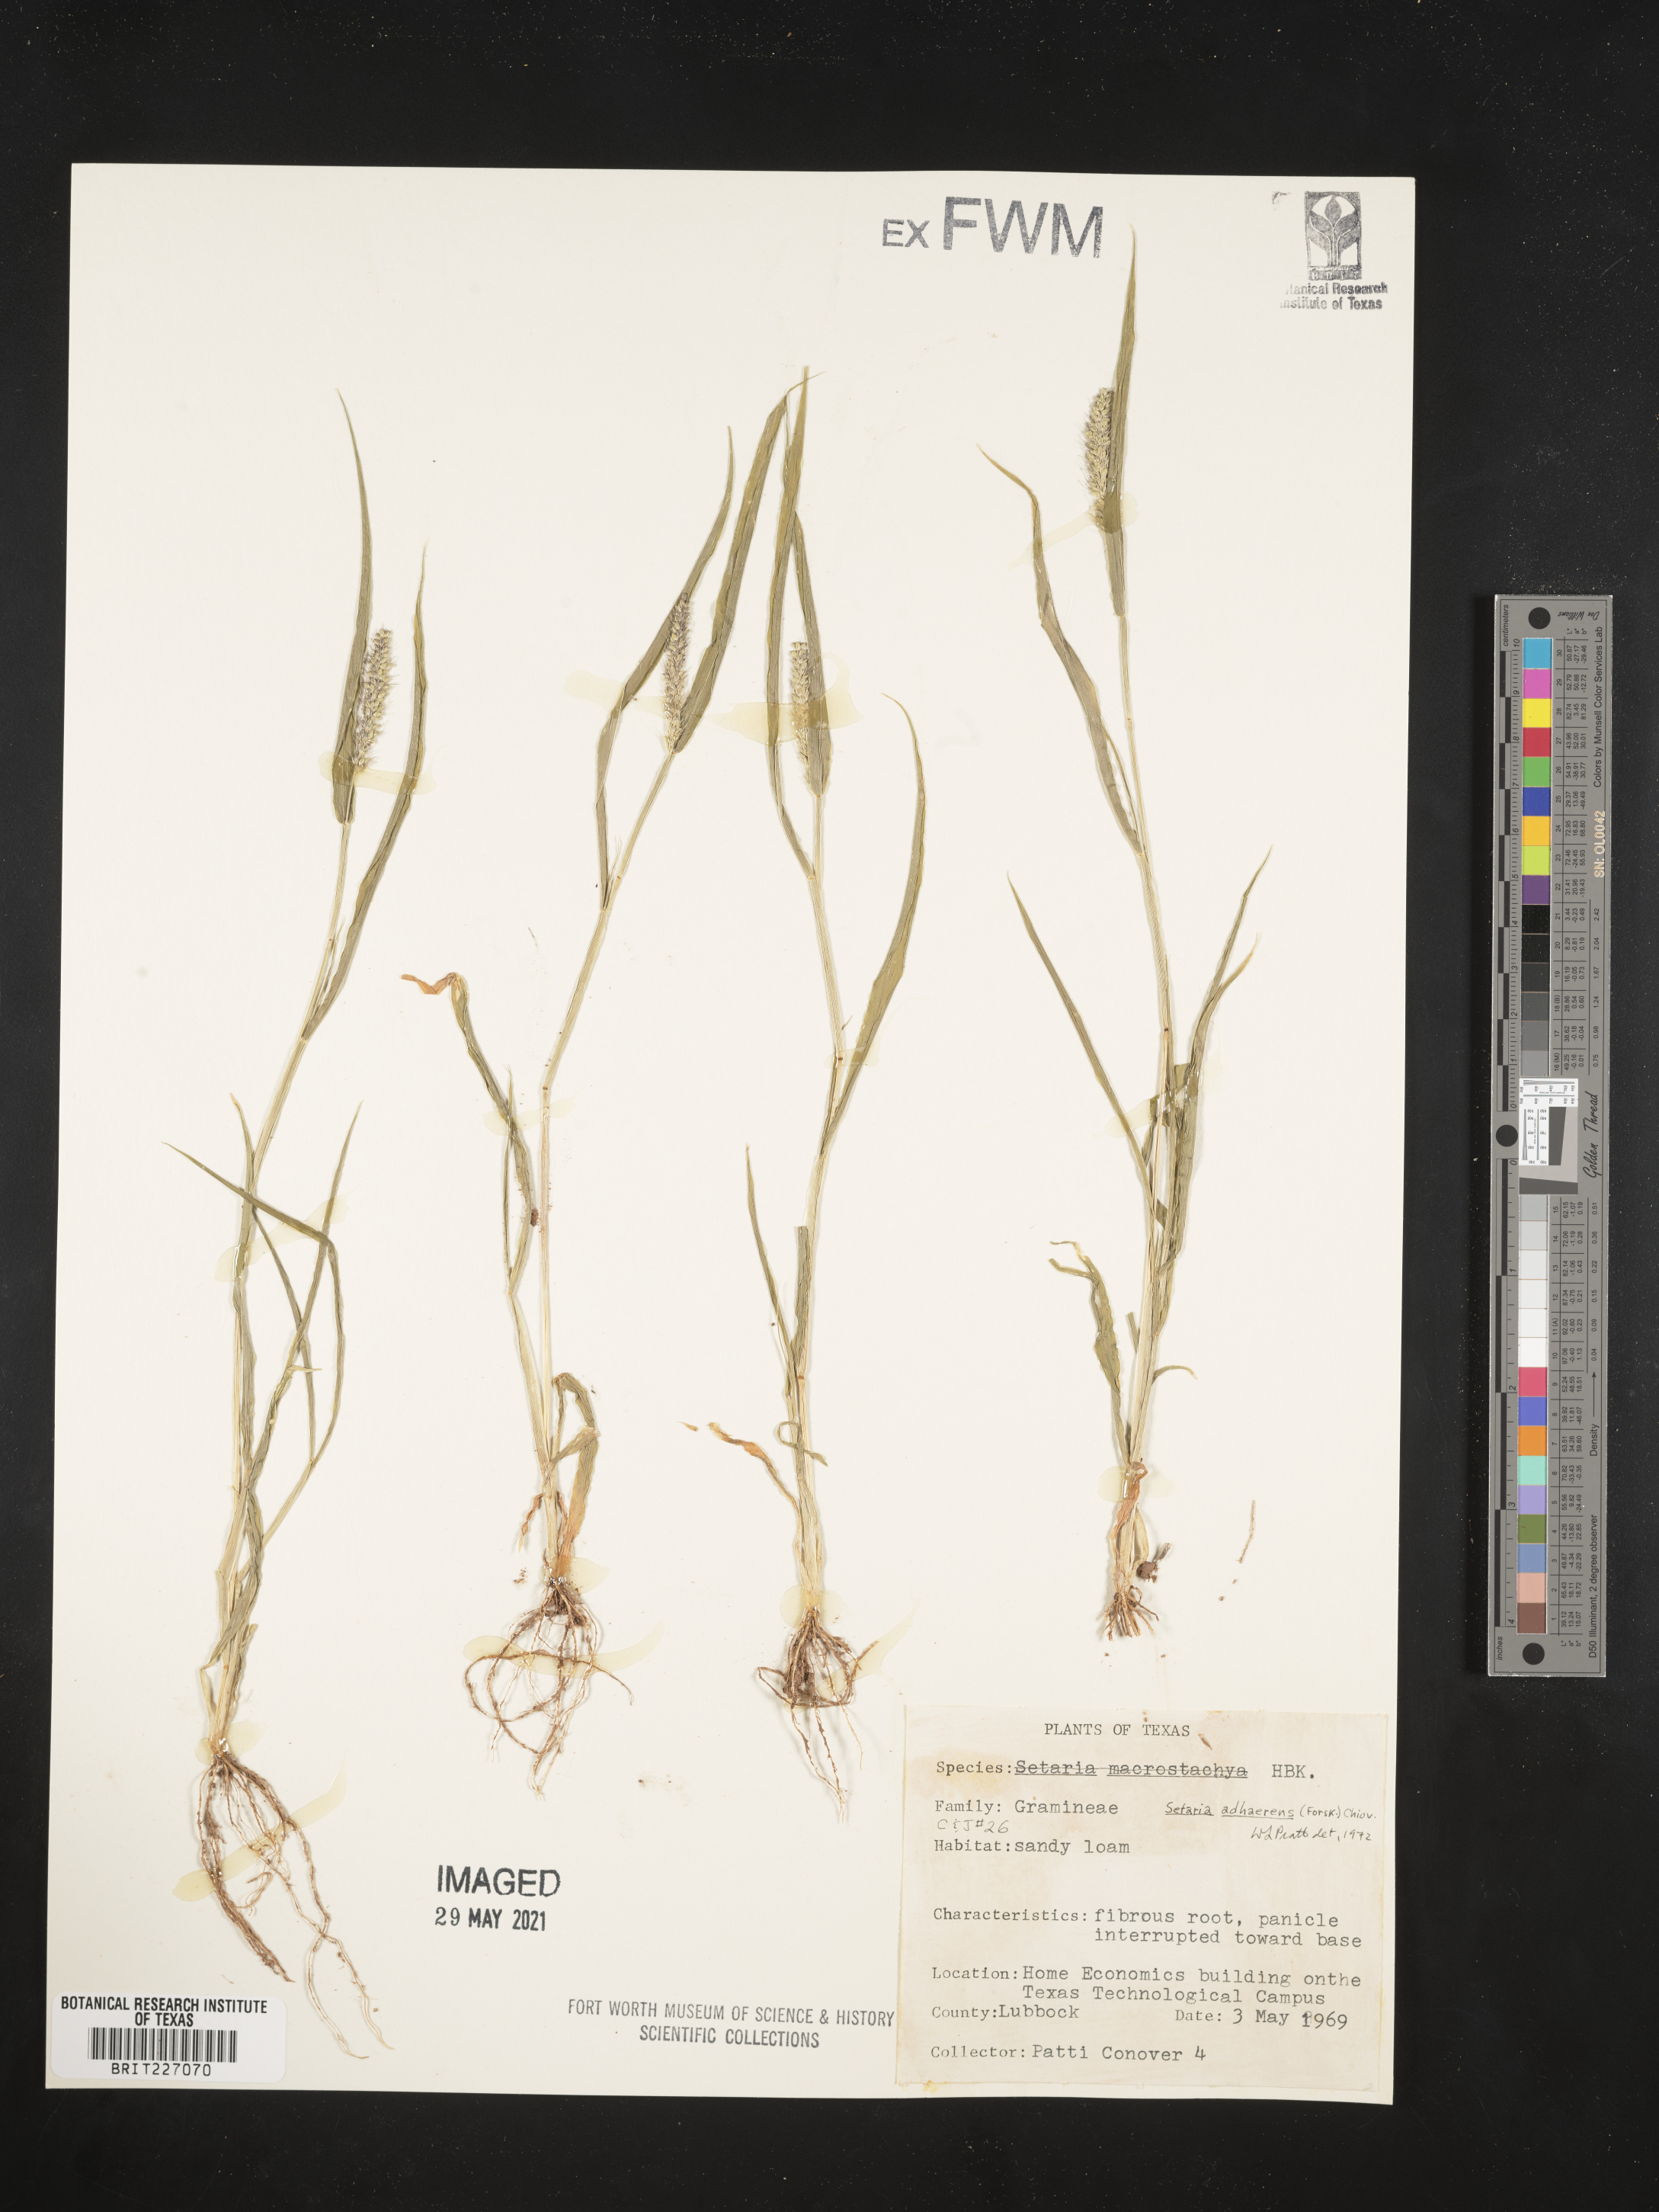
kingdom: Plantae
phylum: Tracheophyta
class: Liliopsida
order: Poales
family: Poaceae
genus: Setaria
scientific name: Setaria adhaerens
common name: Adherent bristle-grass
